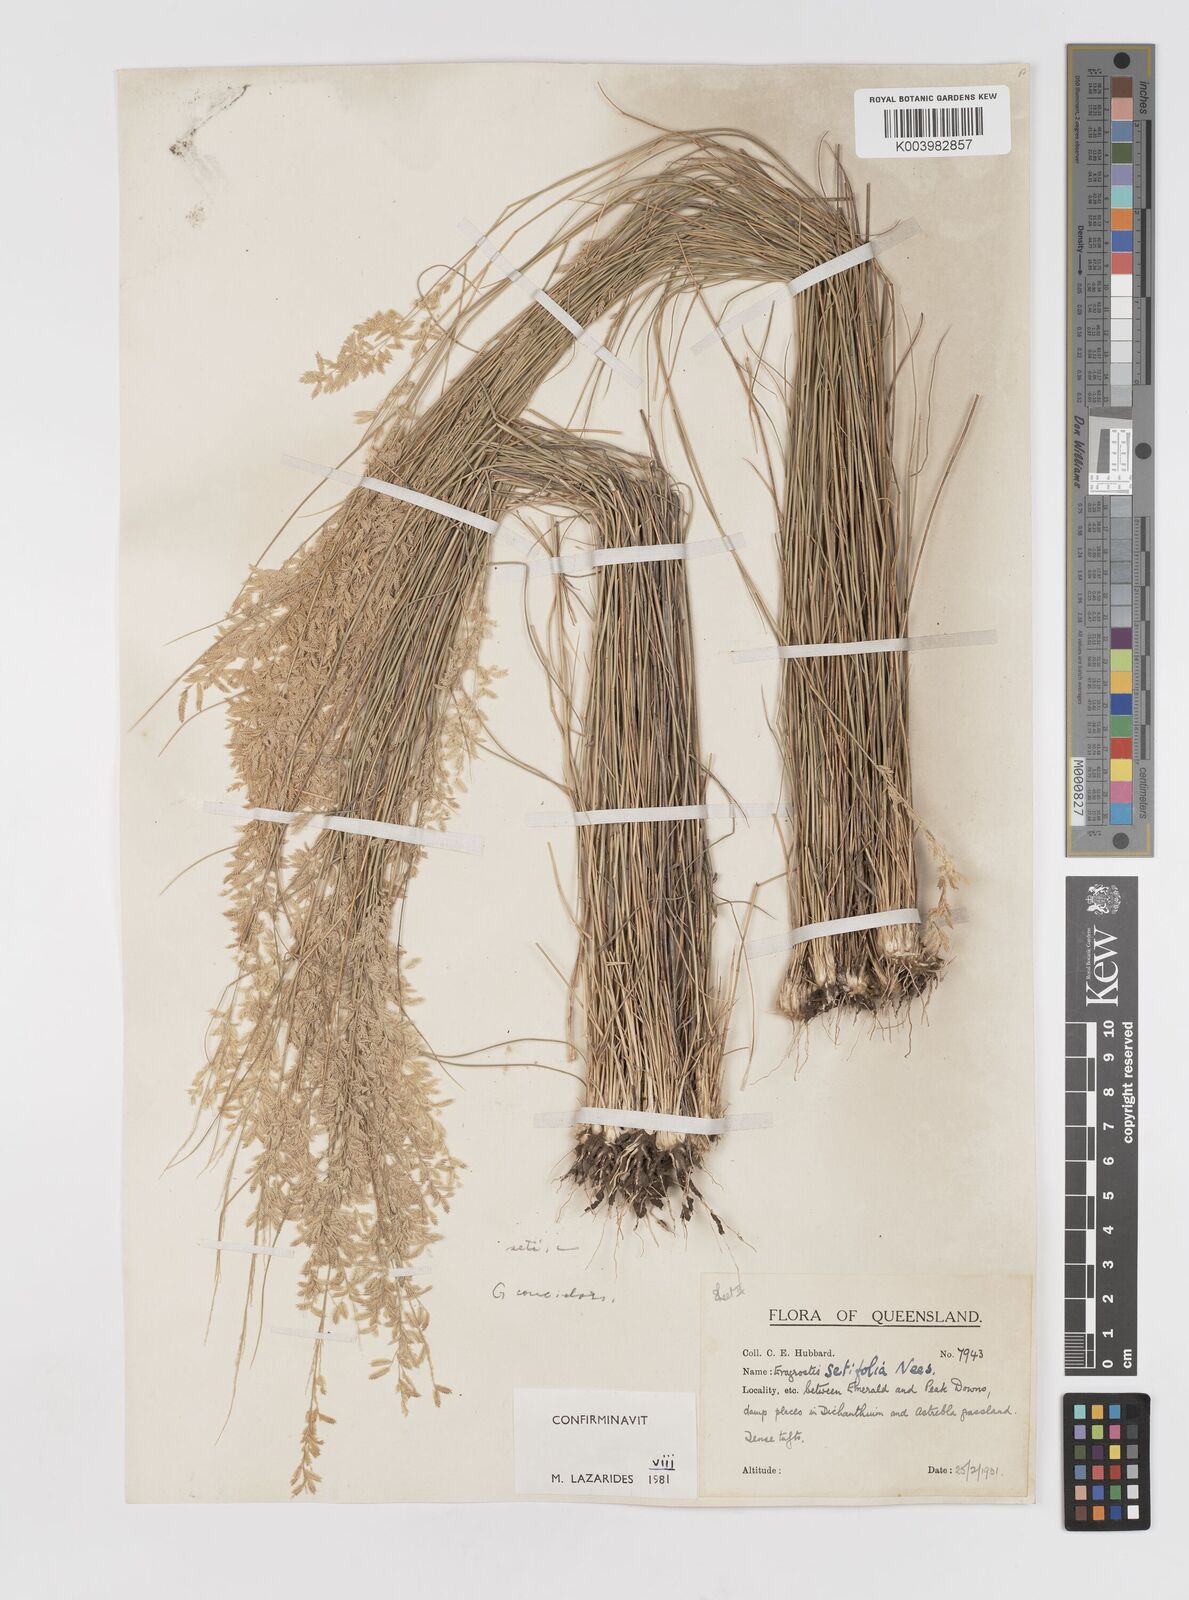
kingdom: Plantae
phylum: Tracheophyta
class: Liliopsida
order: Poales
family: Poaceae
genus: Eragrostis
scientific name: Eragrostis setifolia
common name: Bristleleaf lovegrass
